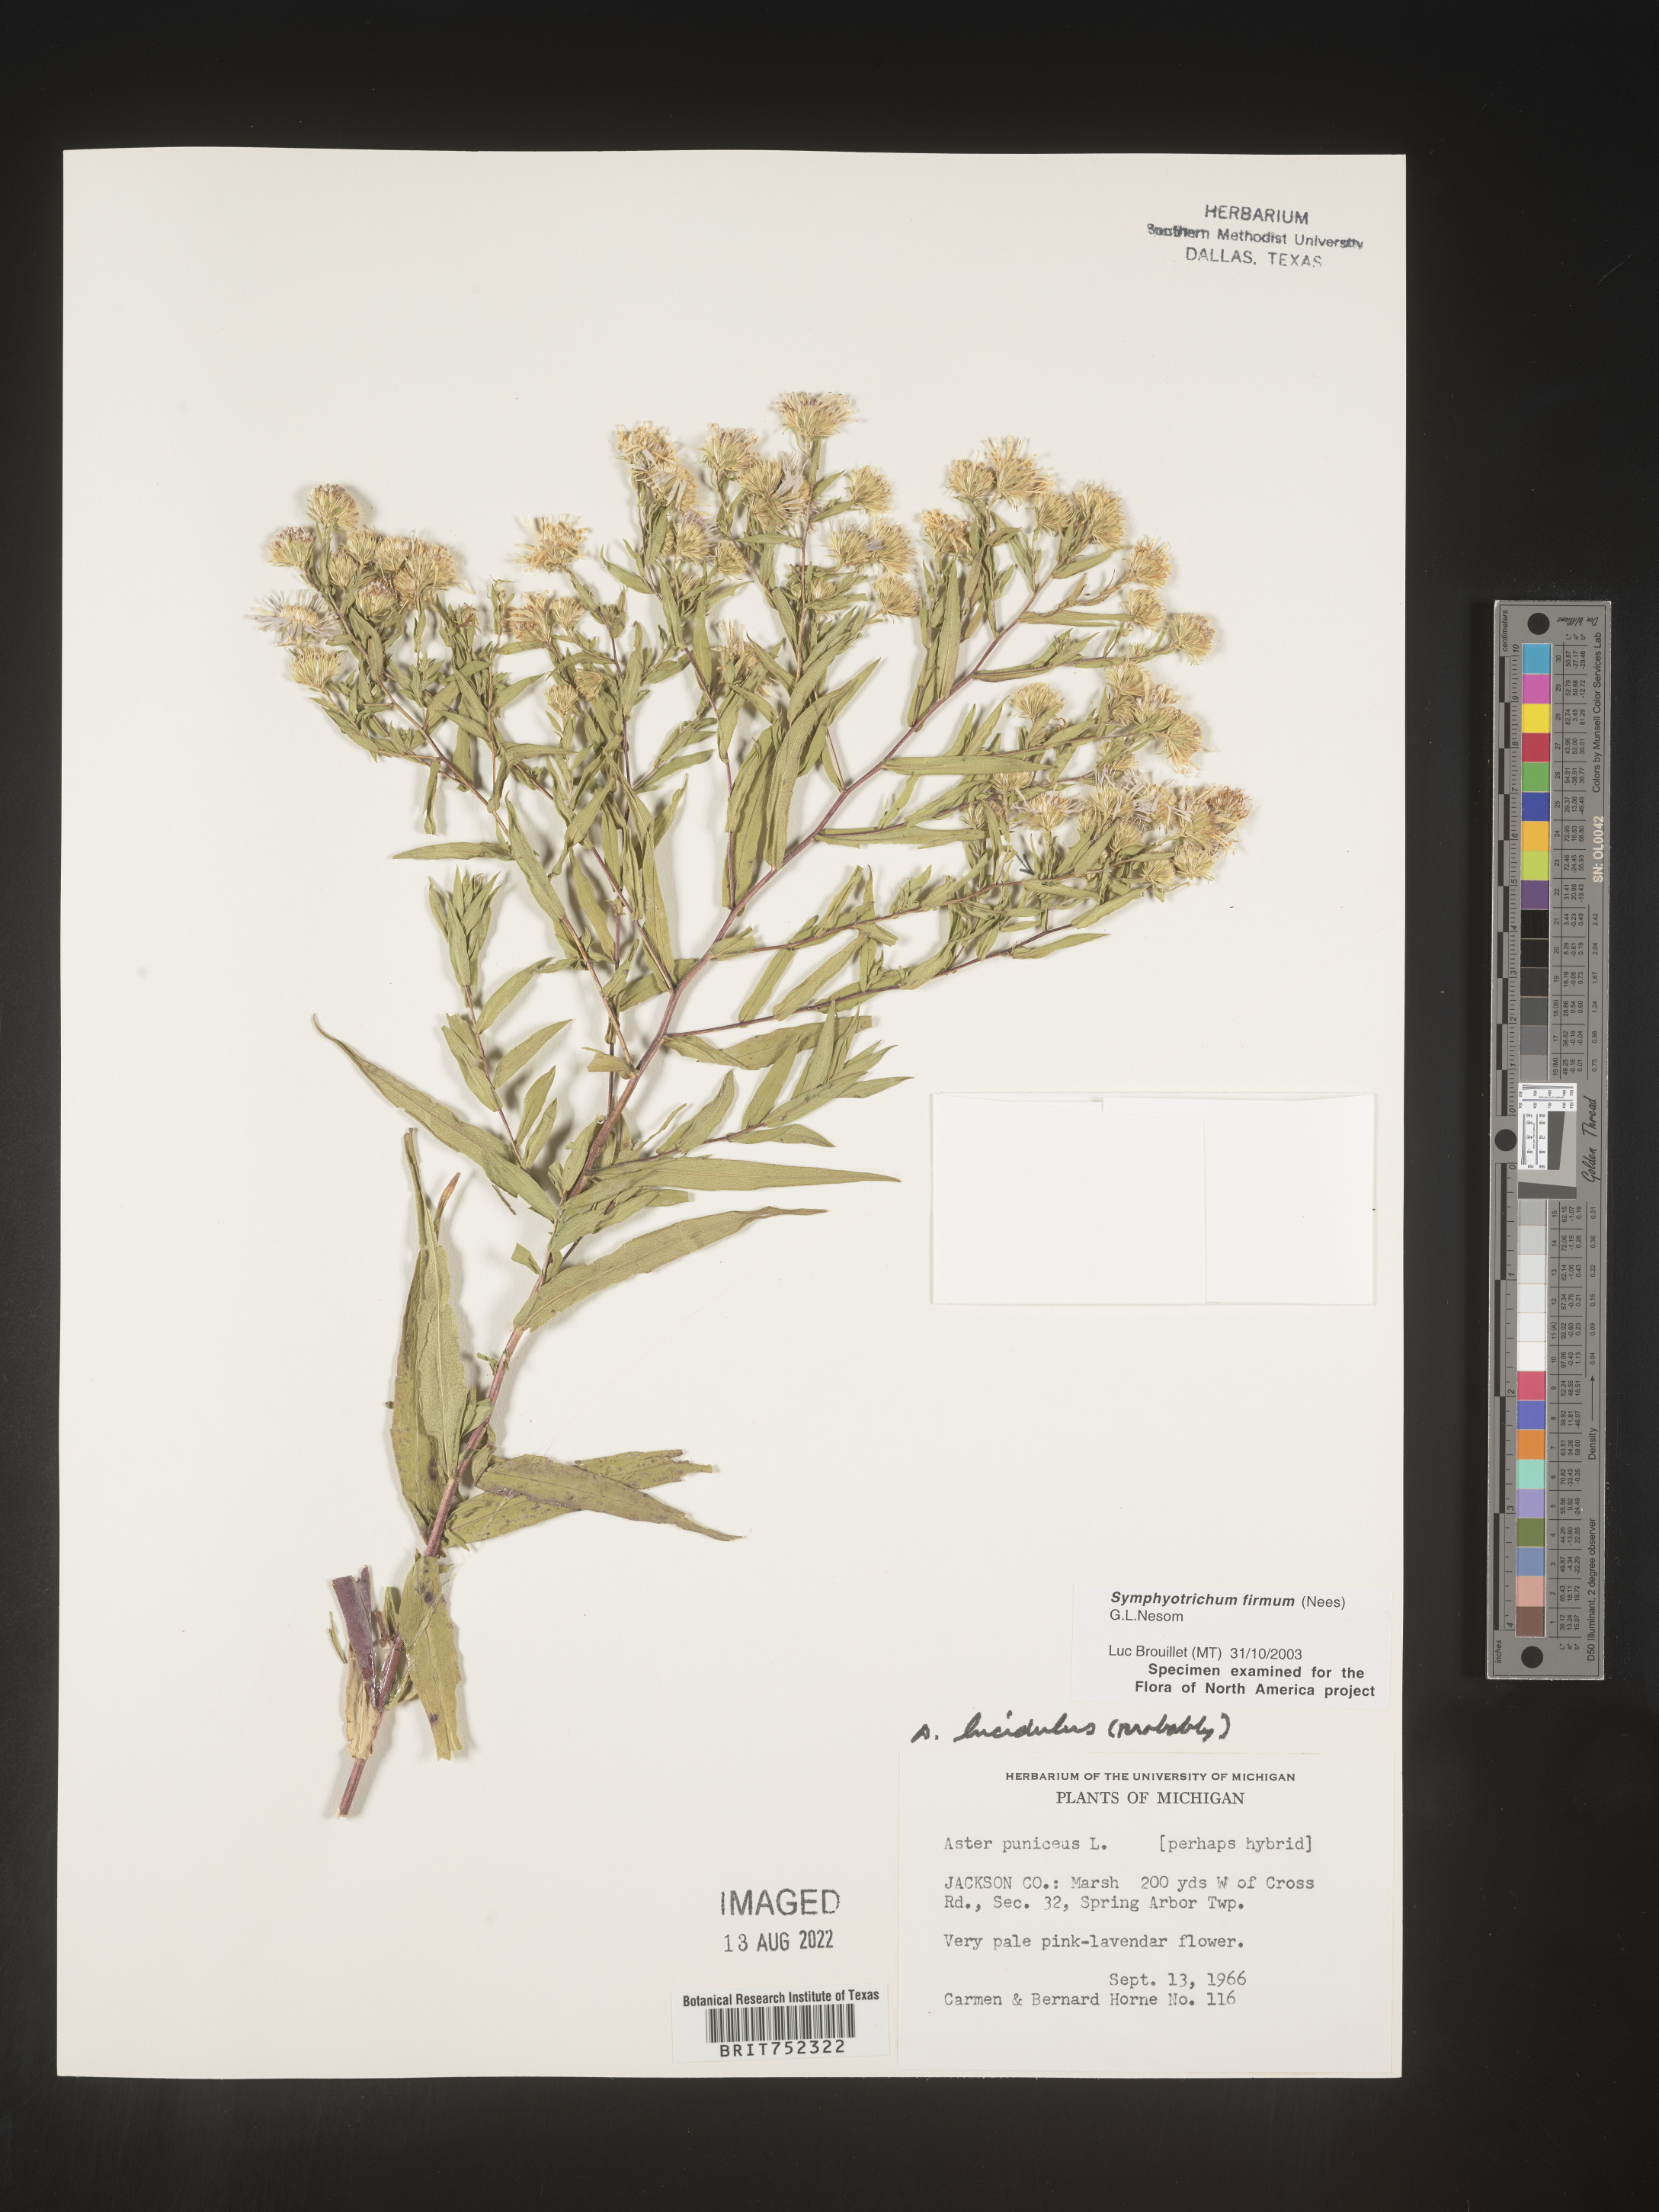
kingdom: Plantae
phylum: Tracheophyta
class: Magnoliopsida
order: Asterales
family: Asteraceae
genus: Symphyotrichum
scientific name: Symphyotrichum firmum
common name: Shining aster
